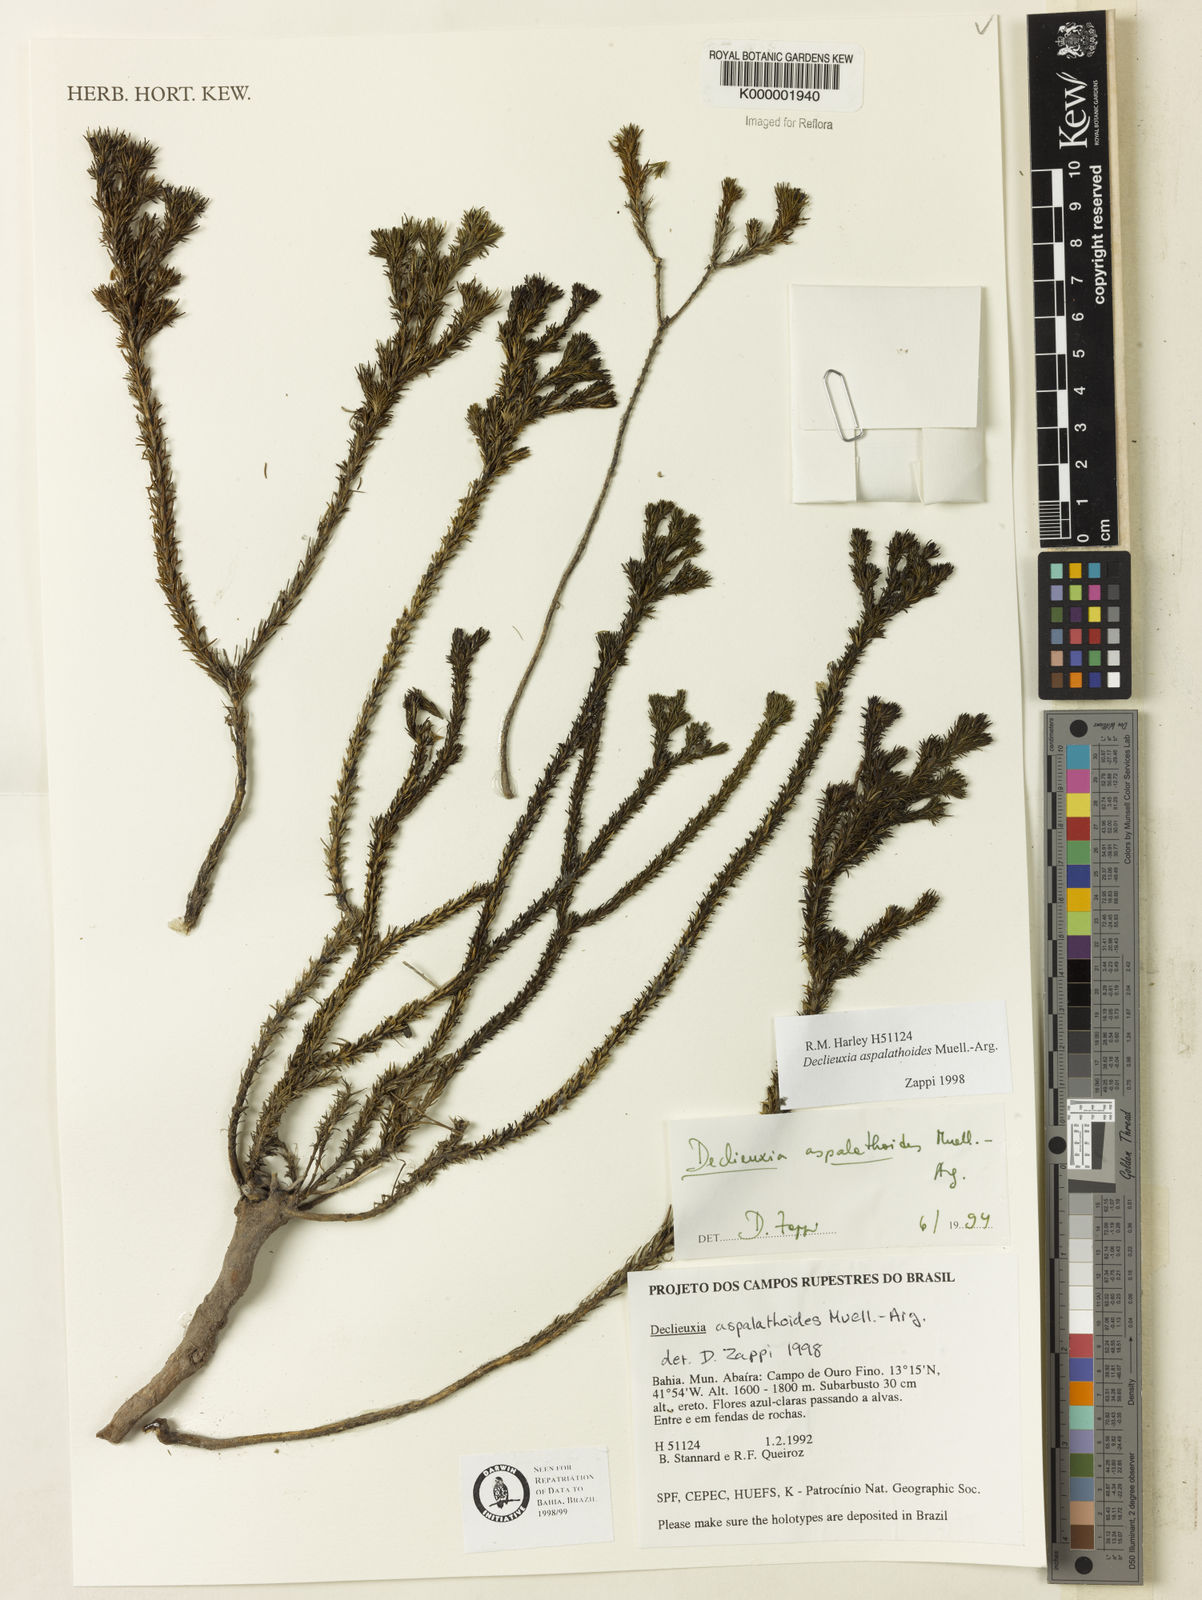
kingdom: Plantae
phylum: Tracheophyta
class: Magnoliopsida
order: Gentianales
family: Rubiaceae
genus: Declieuxia
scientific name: Declieuxia aspalathoides
